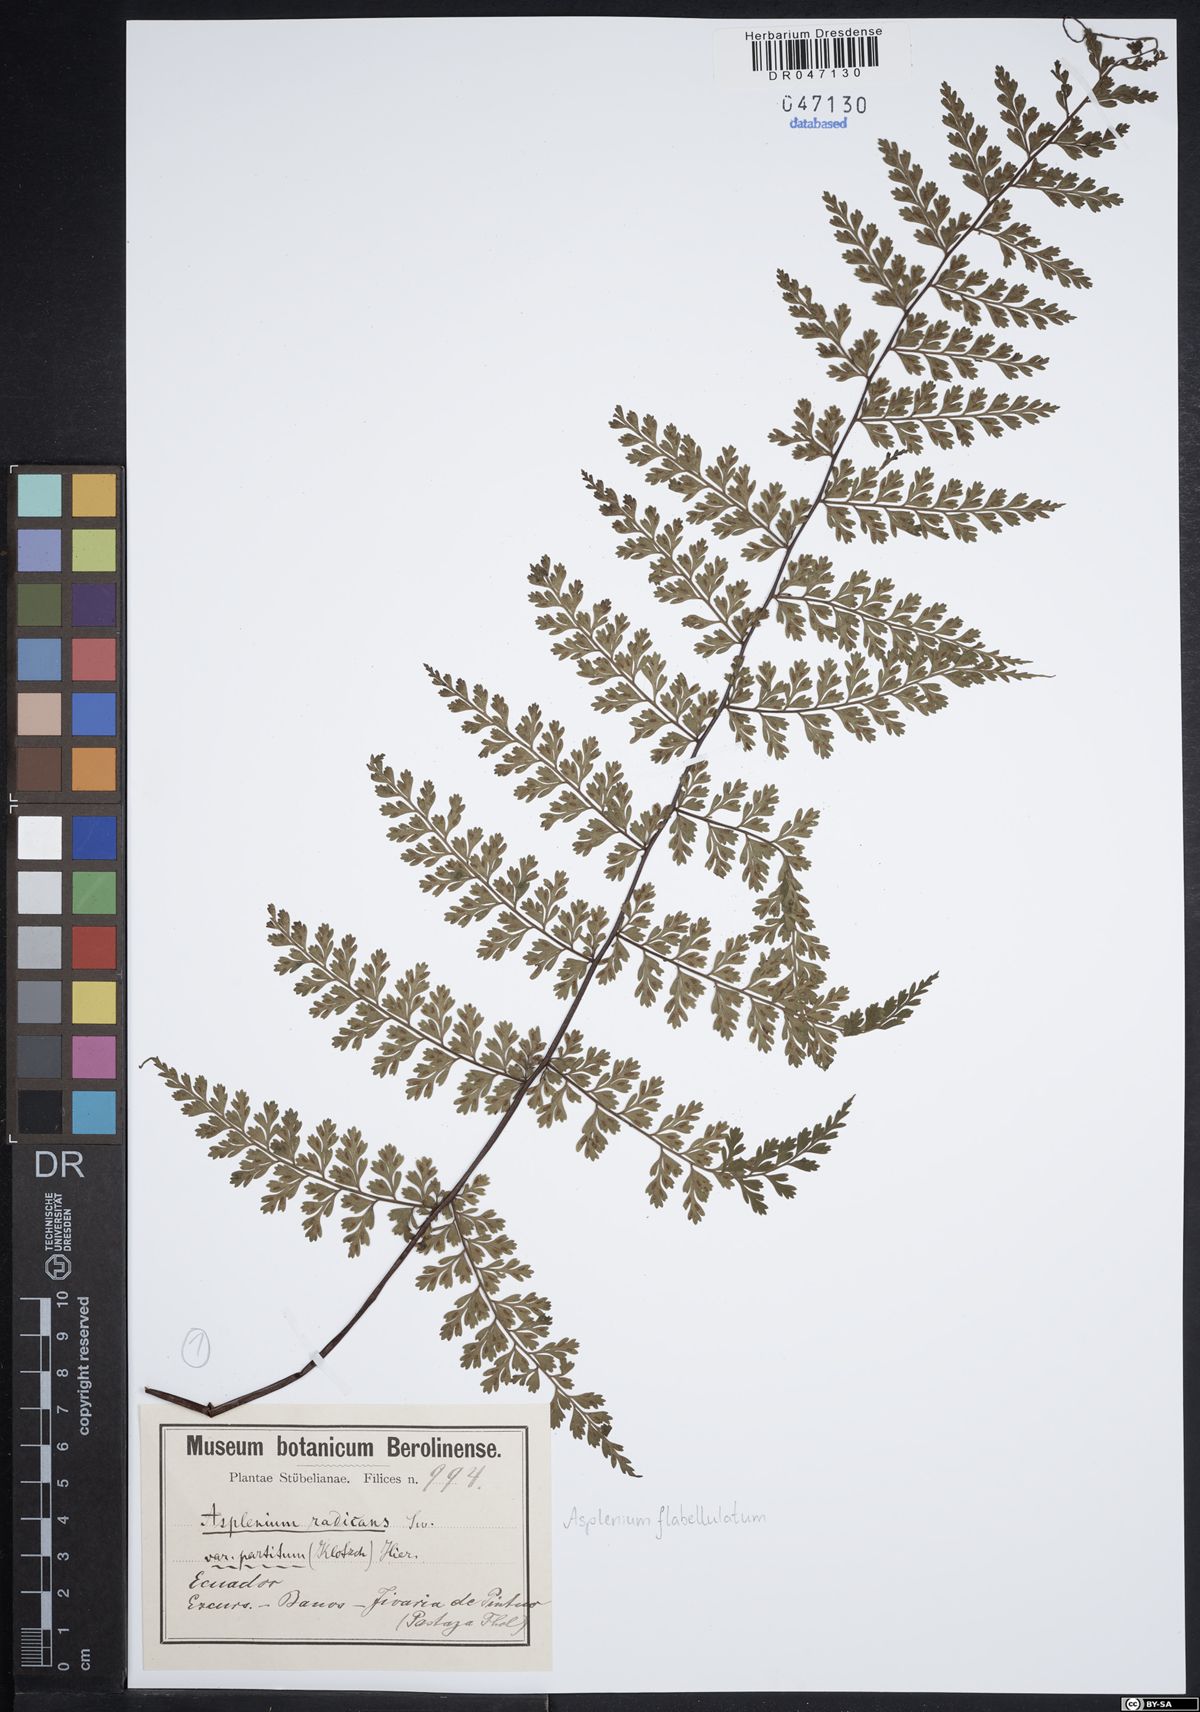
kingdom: Plantae
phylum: Tracheophyta
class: Polypodiopsida
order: Polypodiales
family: Aspleniaceae
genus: Asplenium
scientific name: Asplenium flabellulatum
